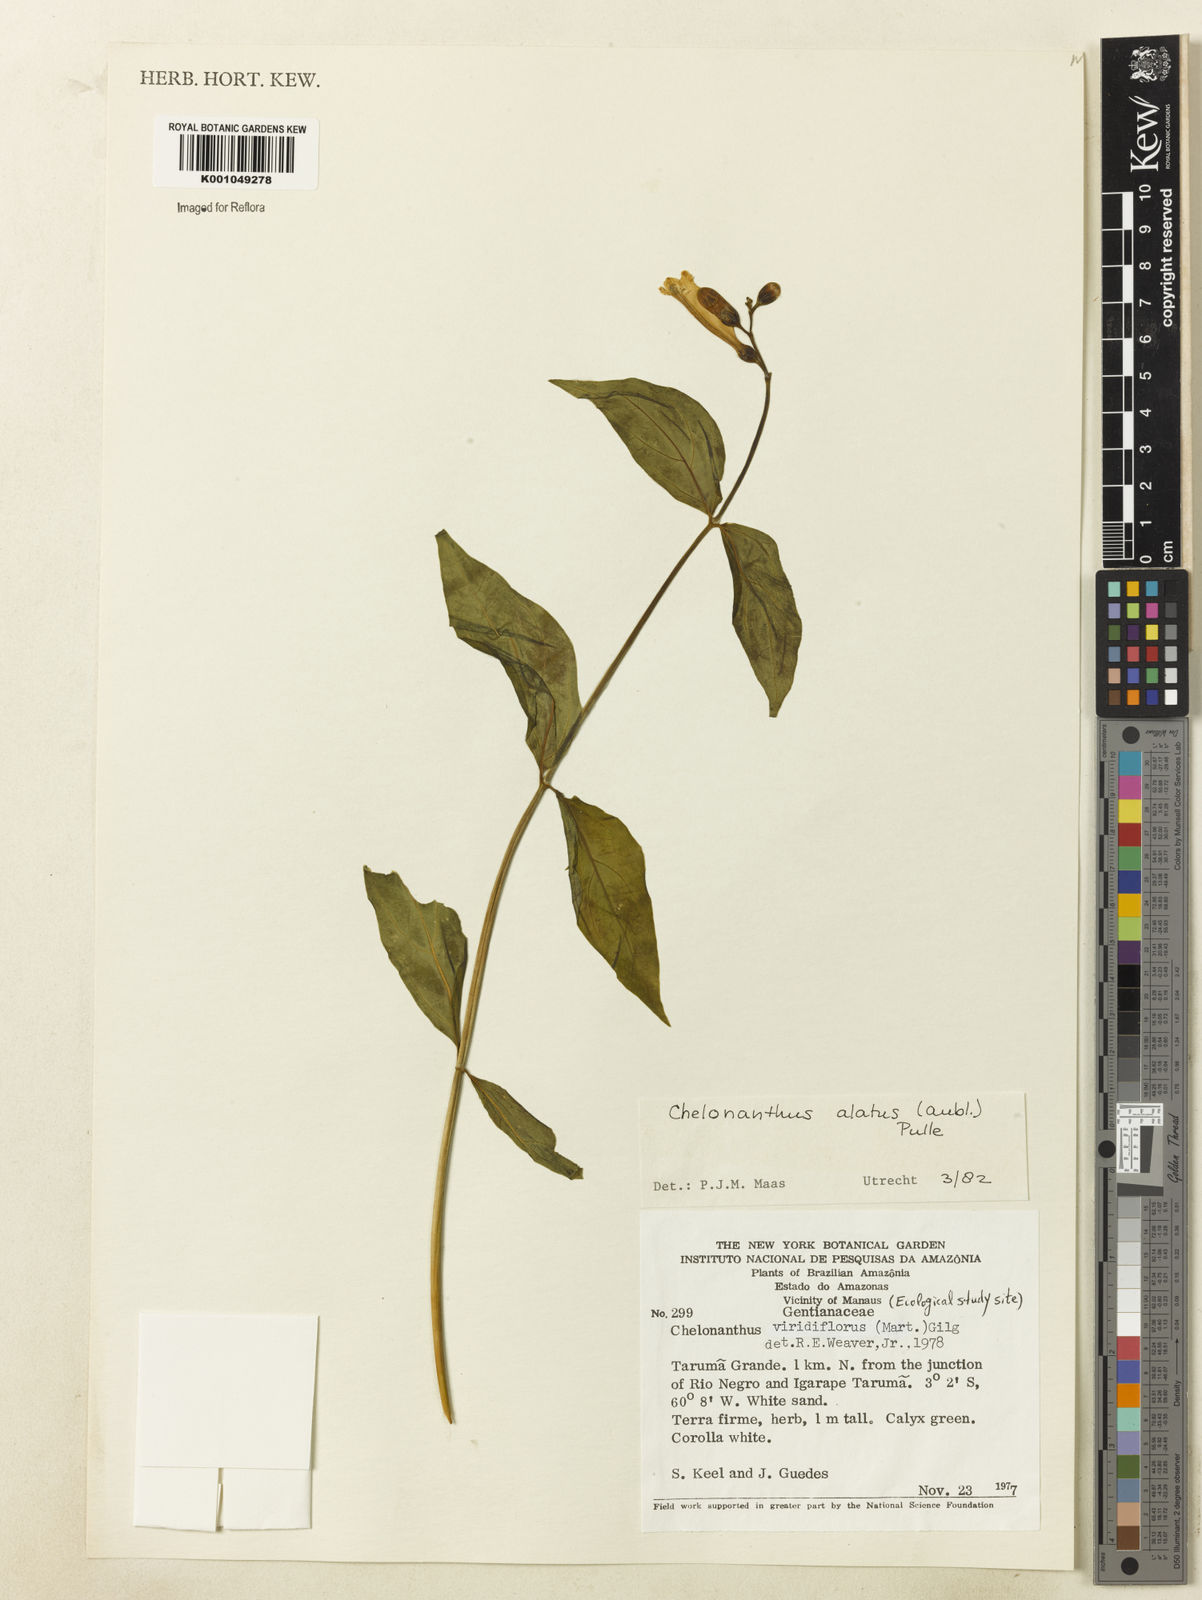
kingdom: Plantae
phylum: Tracheophyta
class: Magnoliopsida
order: Gentianales
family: Gentianaceae
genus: Chelonanthus
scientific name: Chelonanthus alatus
